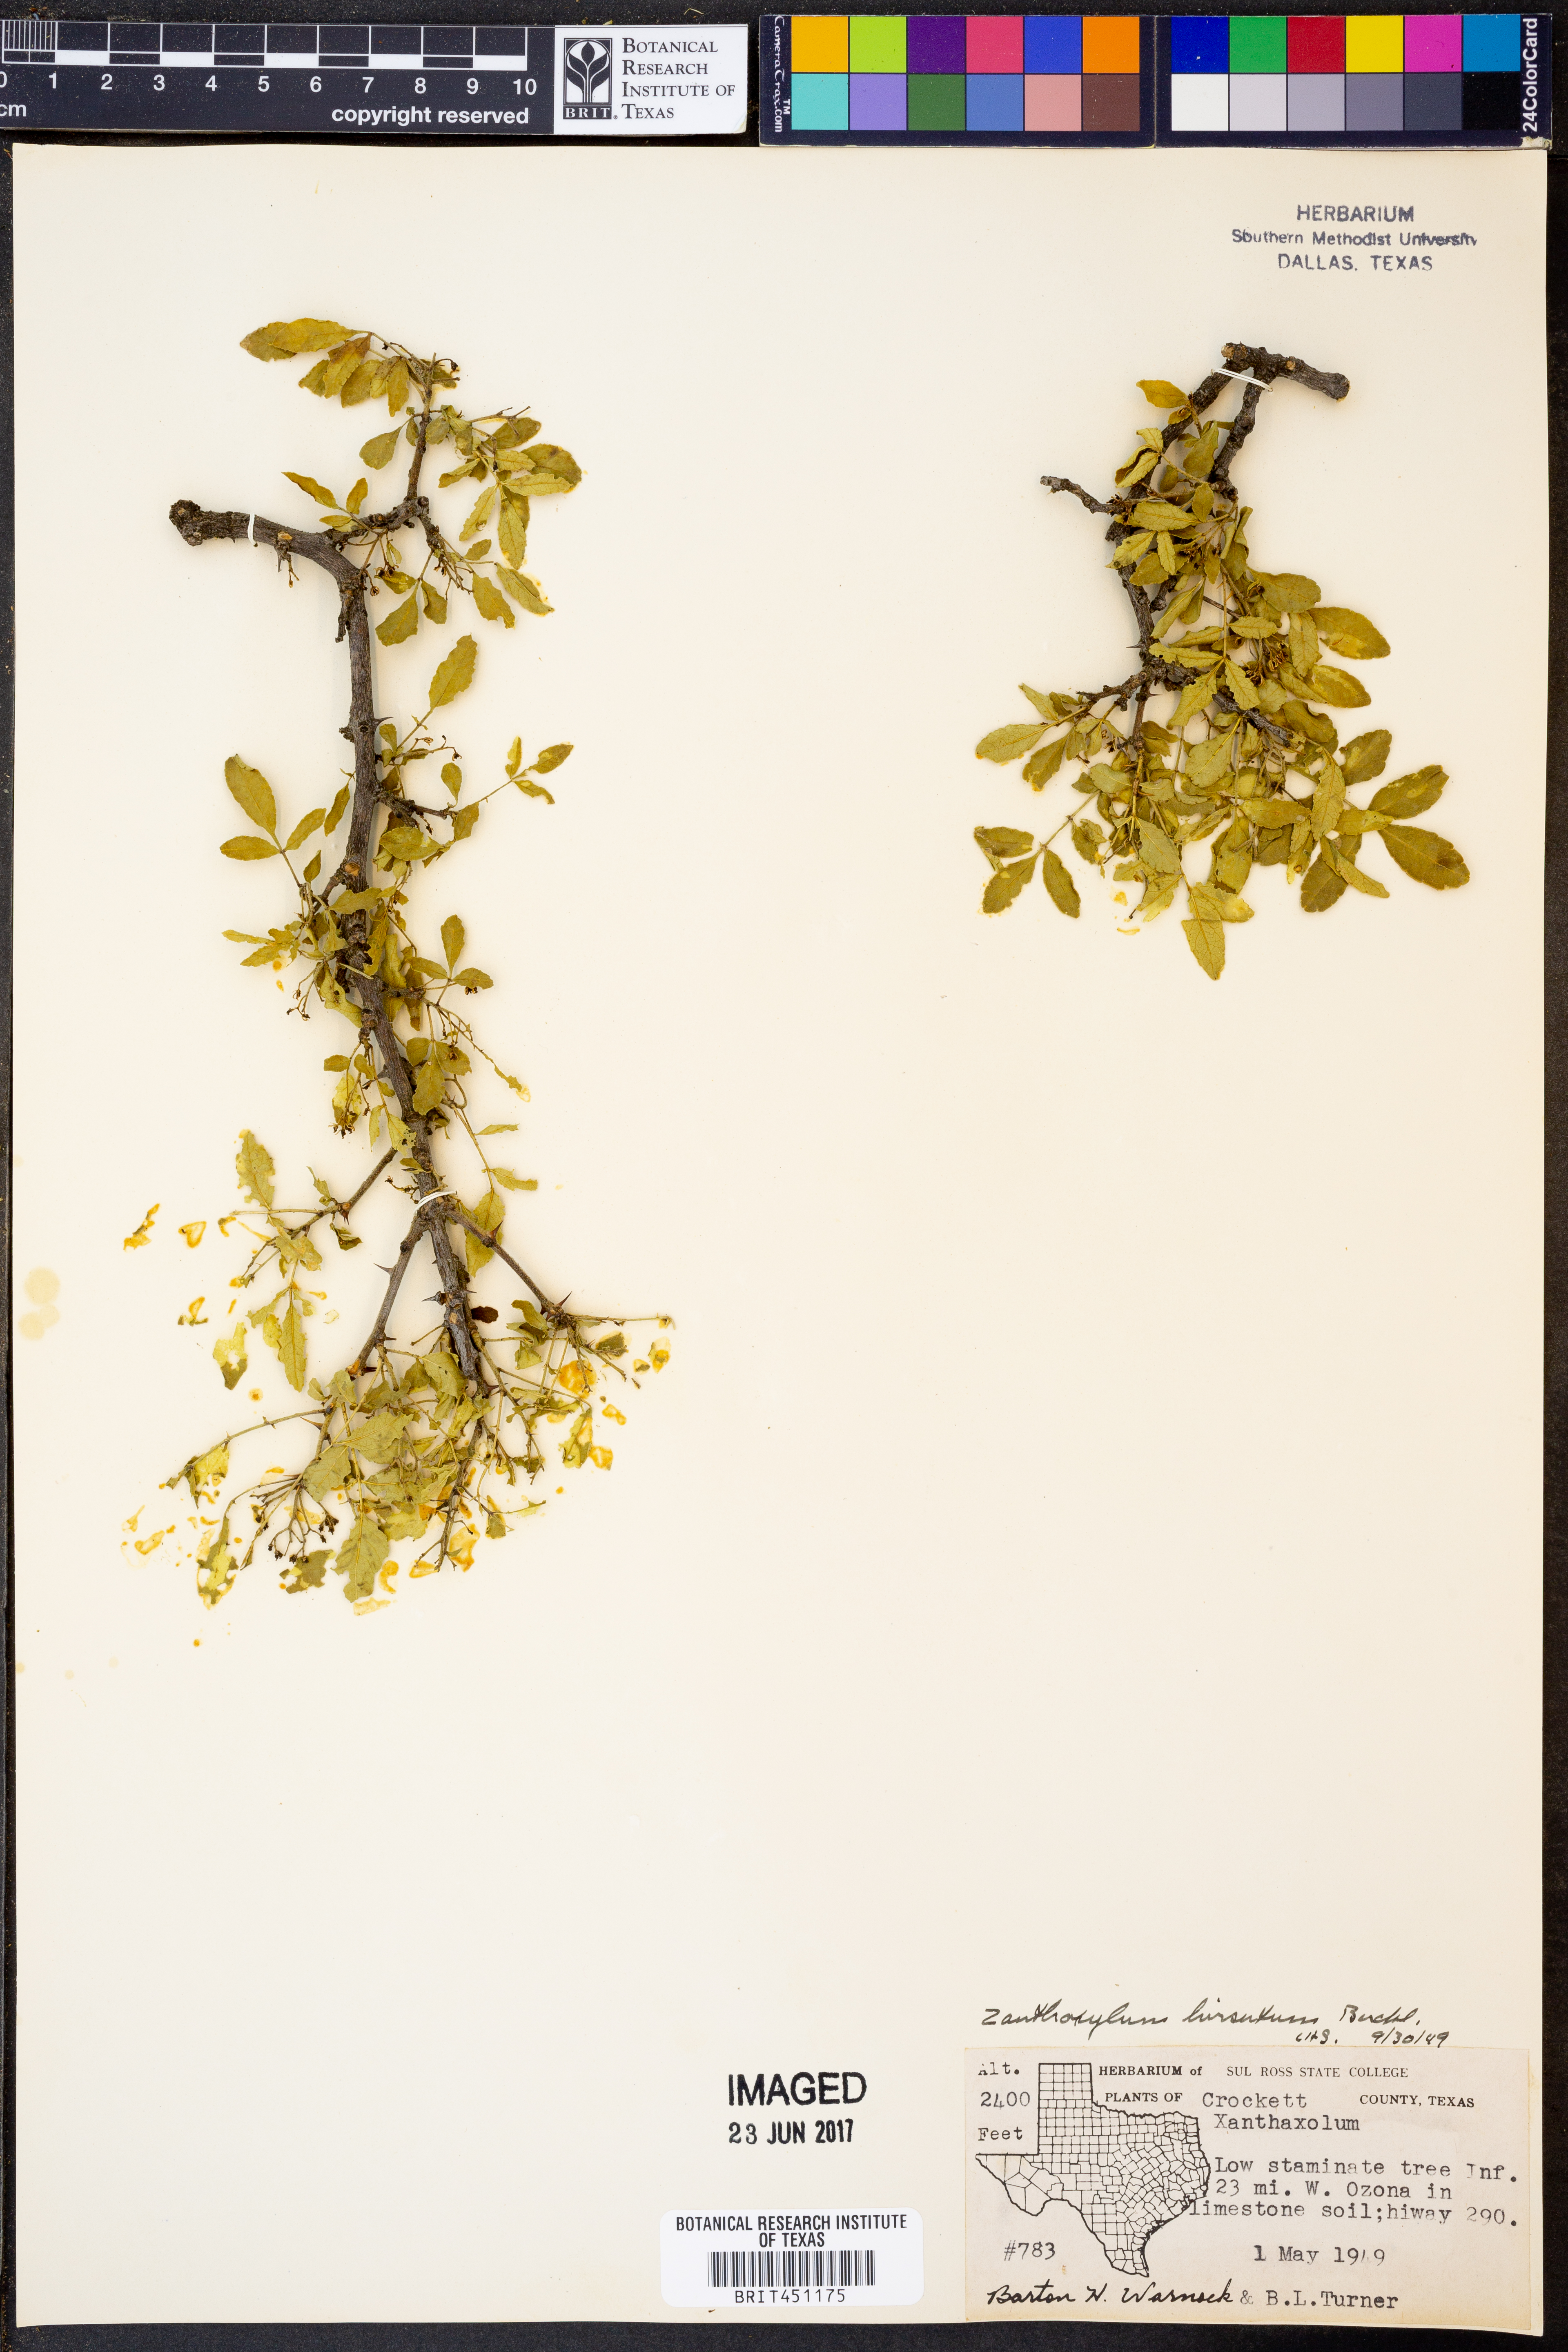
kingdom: Plantae
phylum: Tracheophyta
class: Magnoliopsida
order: Sapindales
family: Rutaceae
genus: Zanthoxylum
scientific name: Zanthoxylum clava-herculis
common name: Hercules'-club
